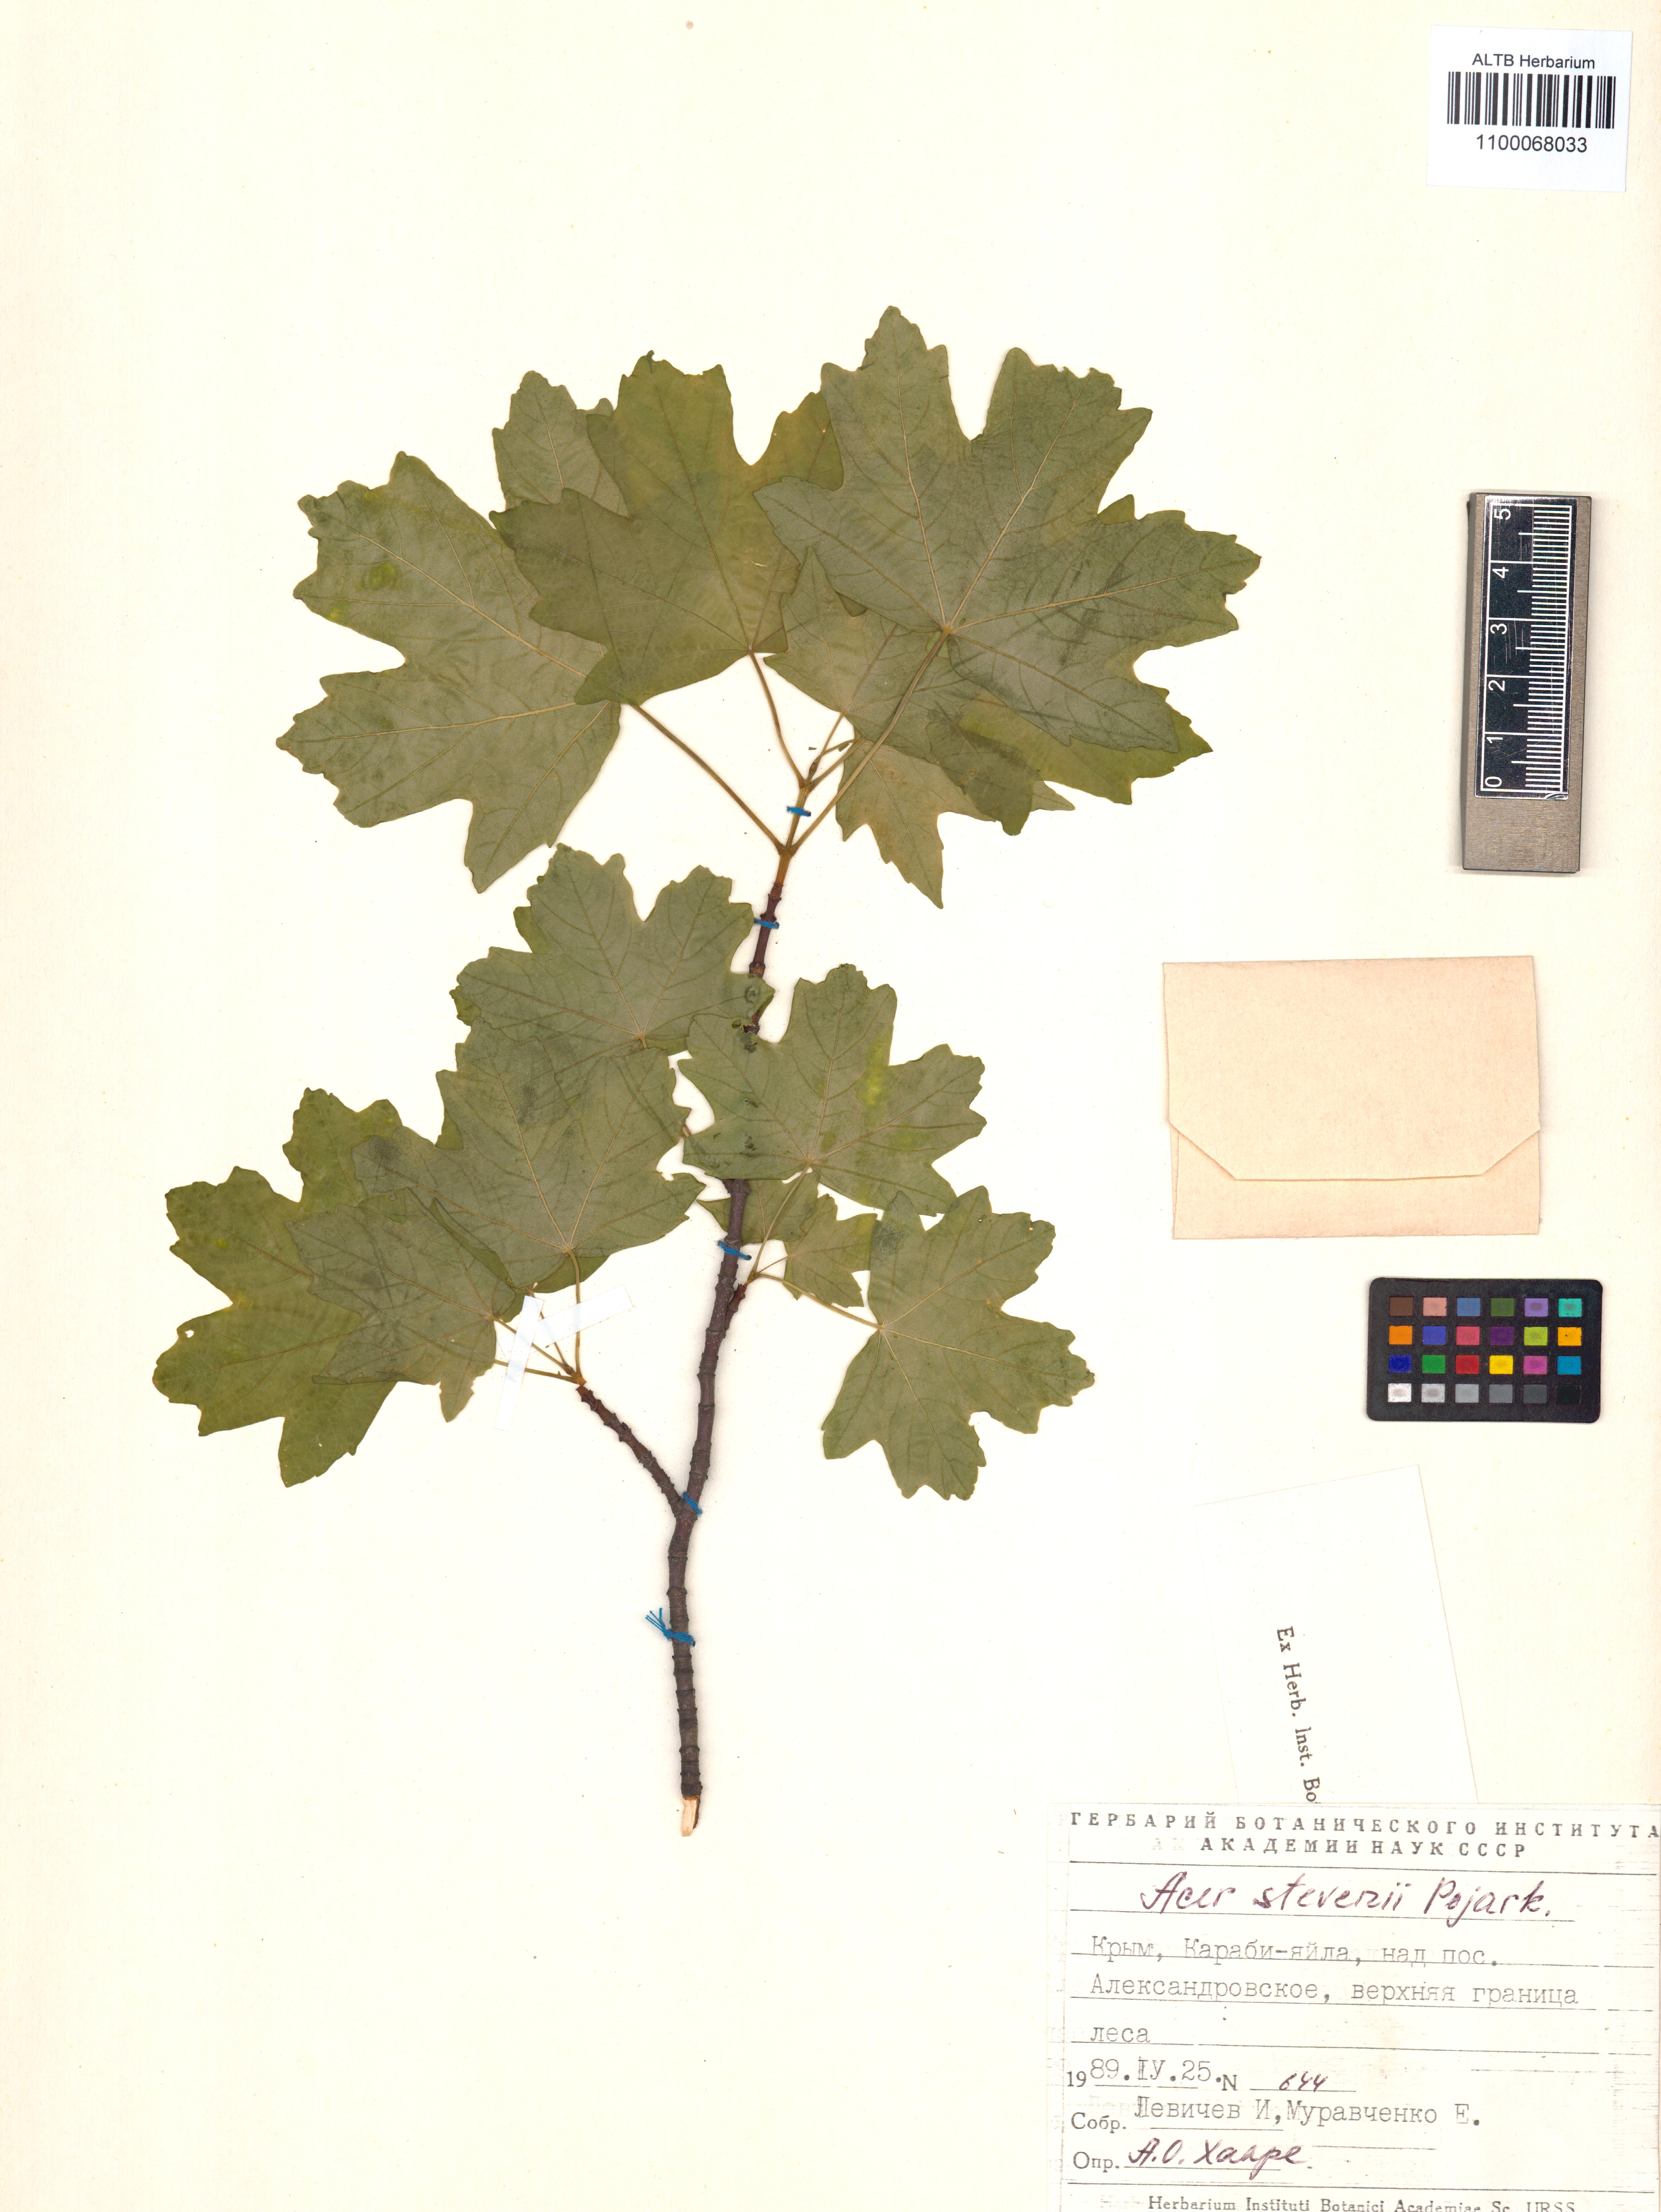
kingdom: Plantae
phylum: Tracheophyta
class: Magnoliopsida
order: Sapindales
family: Sapindaceae
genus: Acer
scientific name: Acer hyrcanum
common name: Balkan maple
